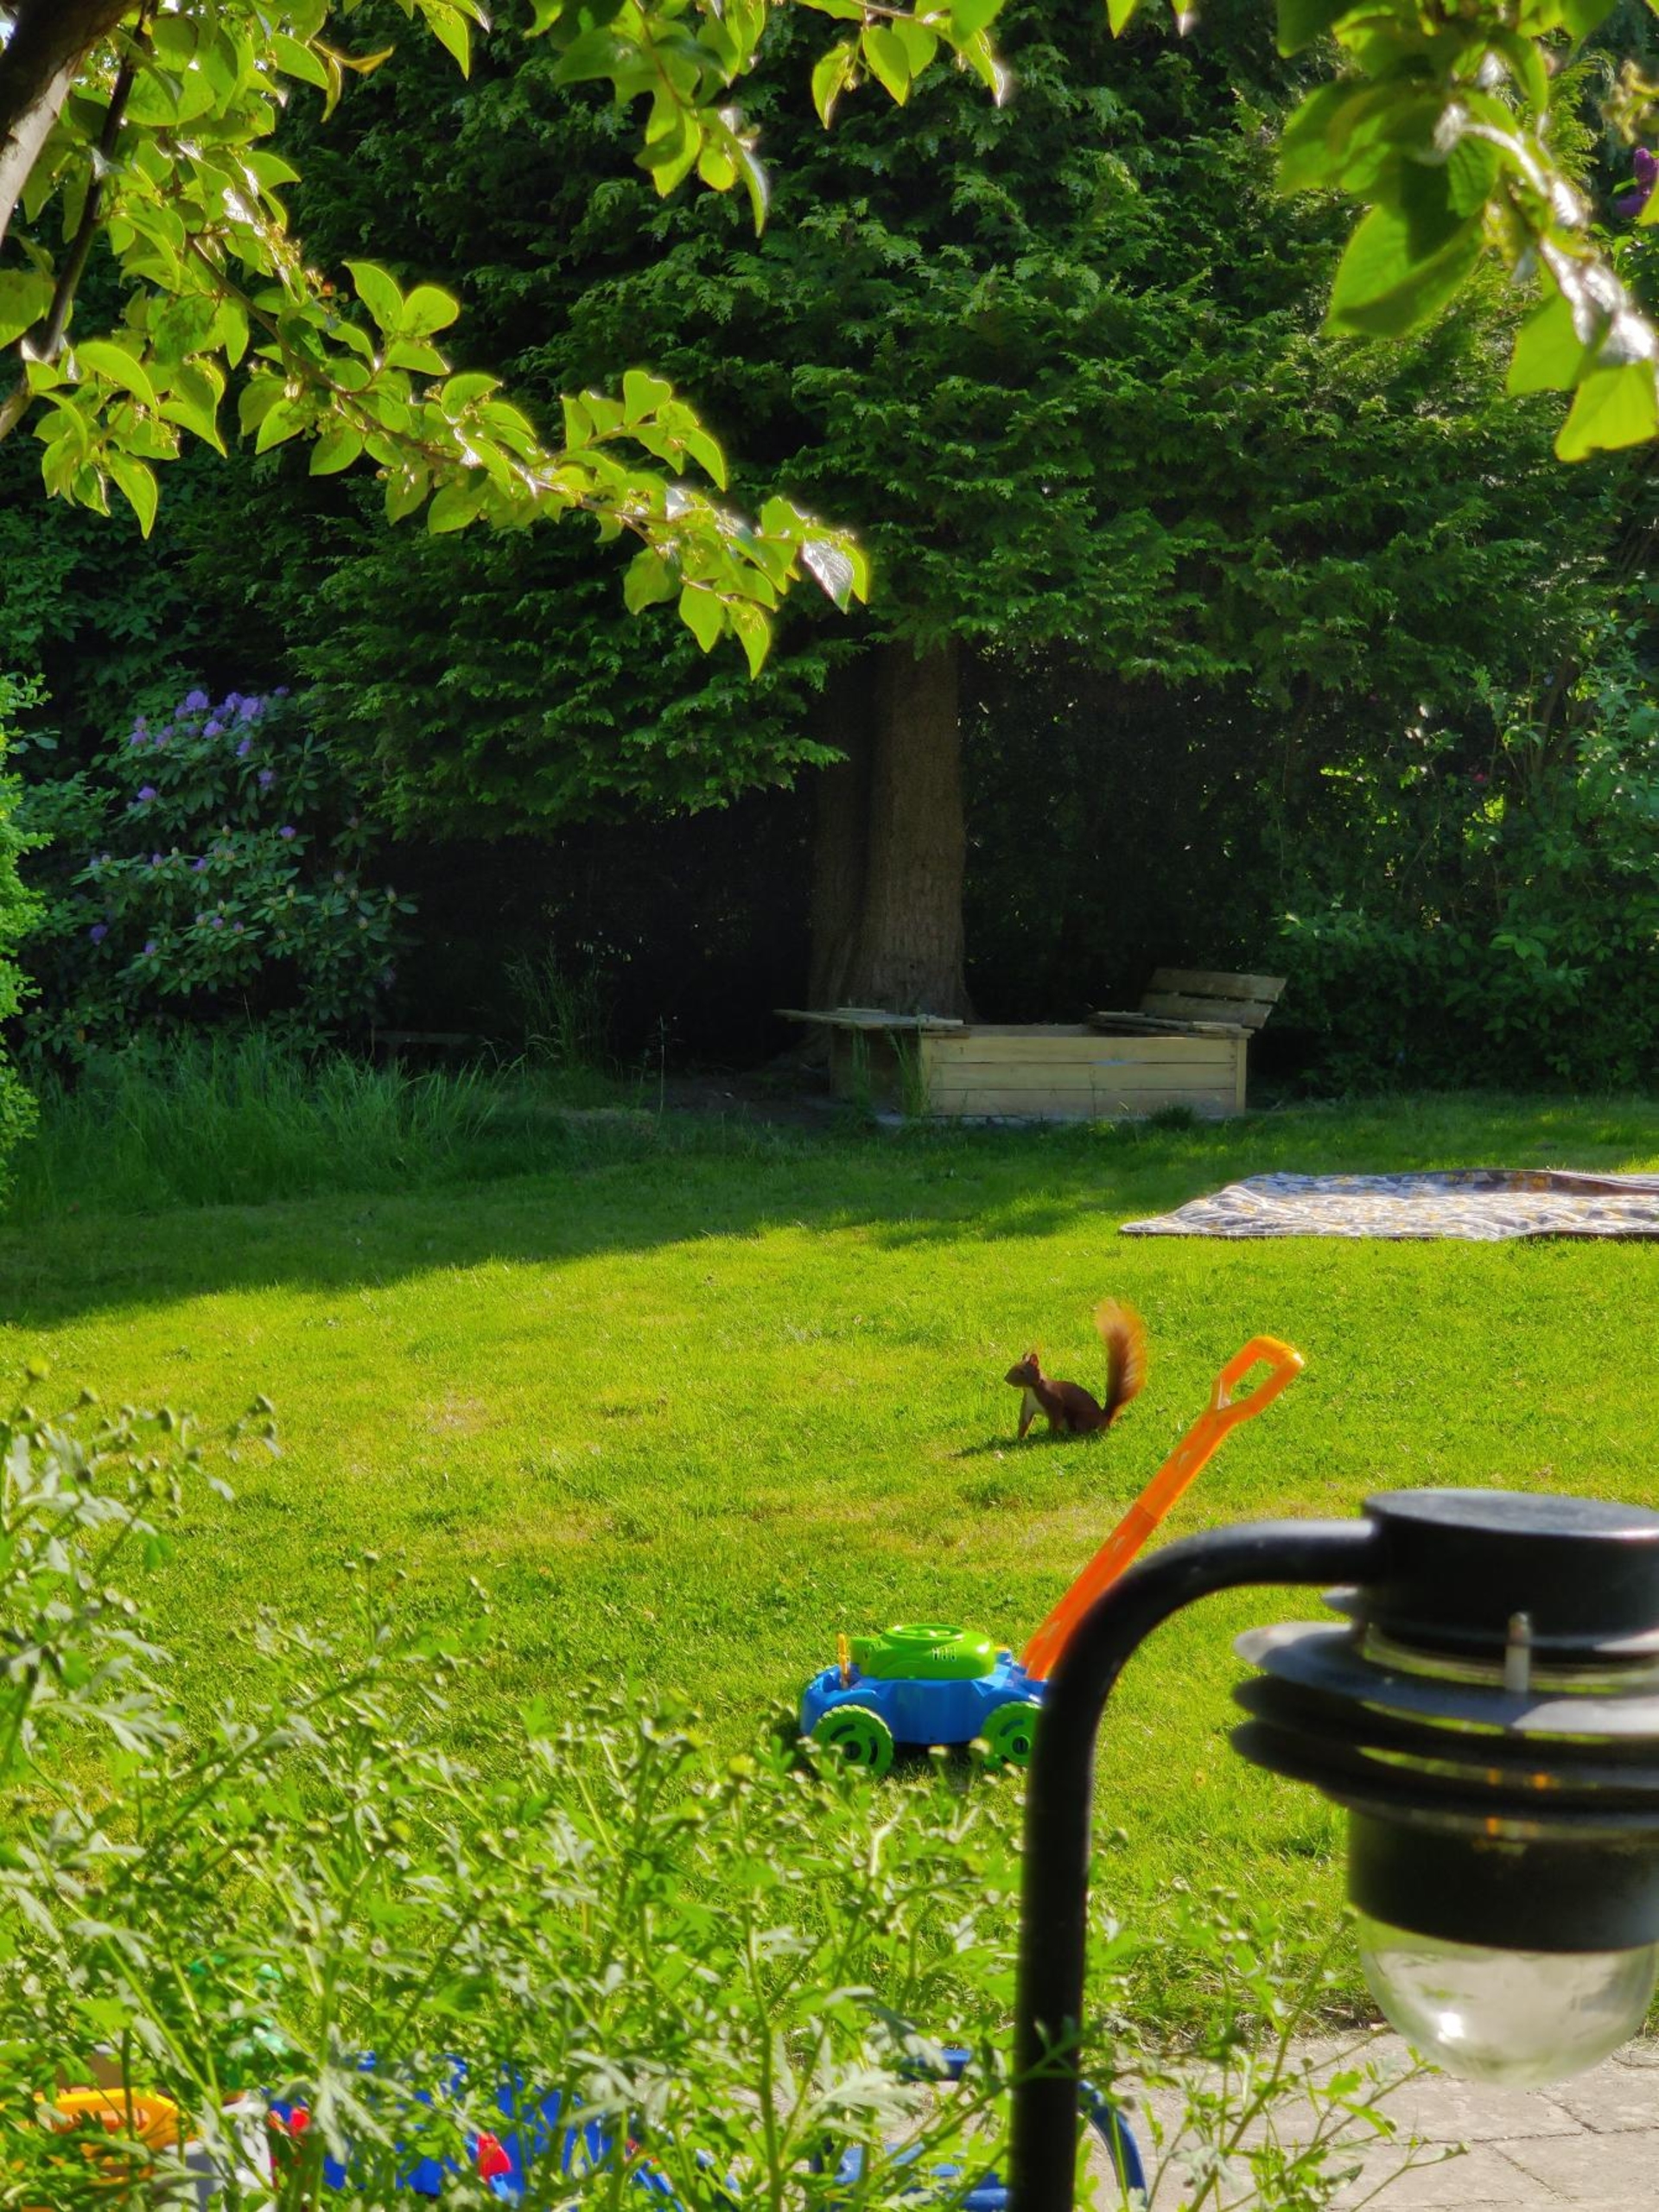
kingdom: Animalia
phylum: Chordata
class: Mammalia
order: Rodentia
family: Sciuridae
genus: Sciurus
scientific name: Sciurus vulgaris
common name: Egern
